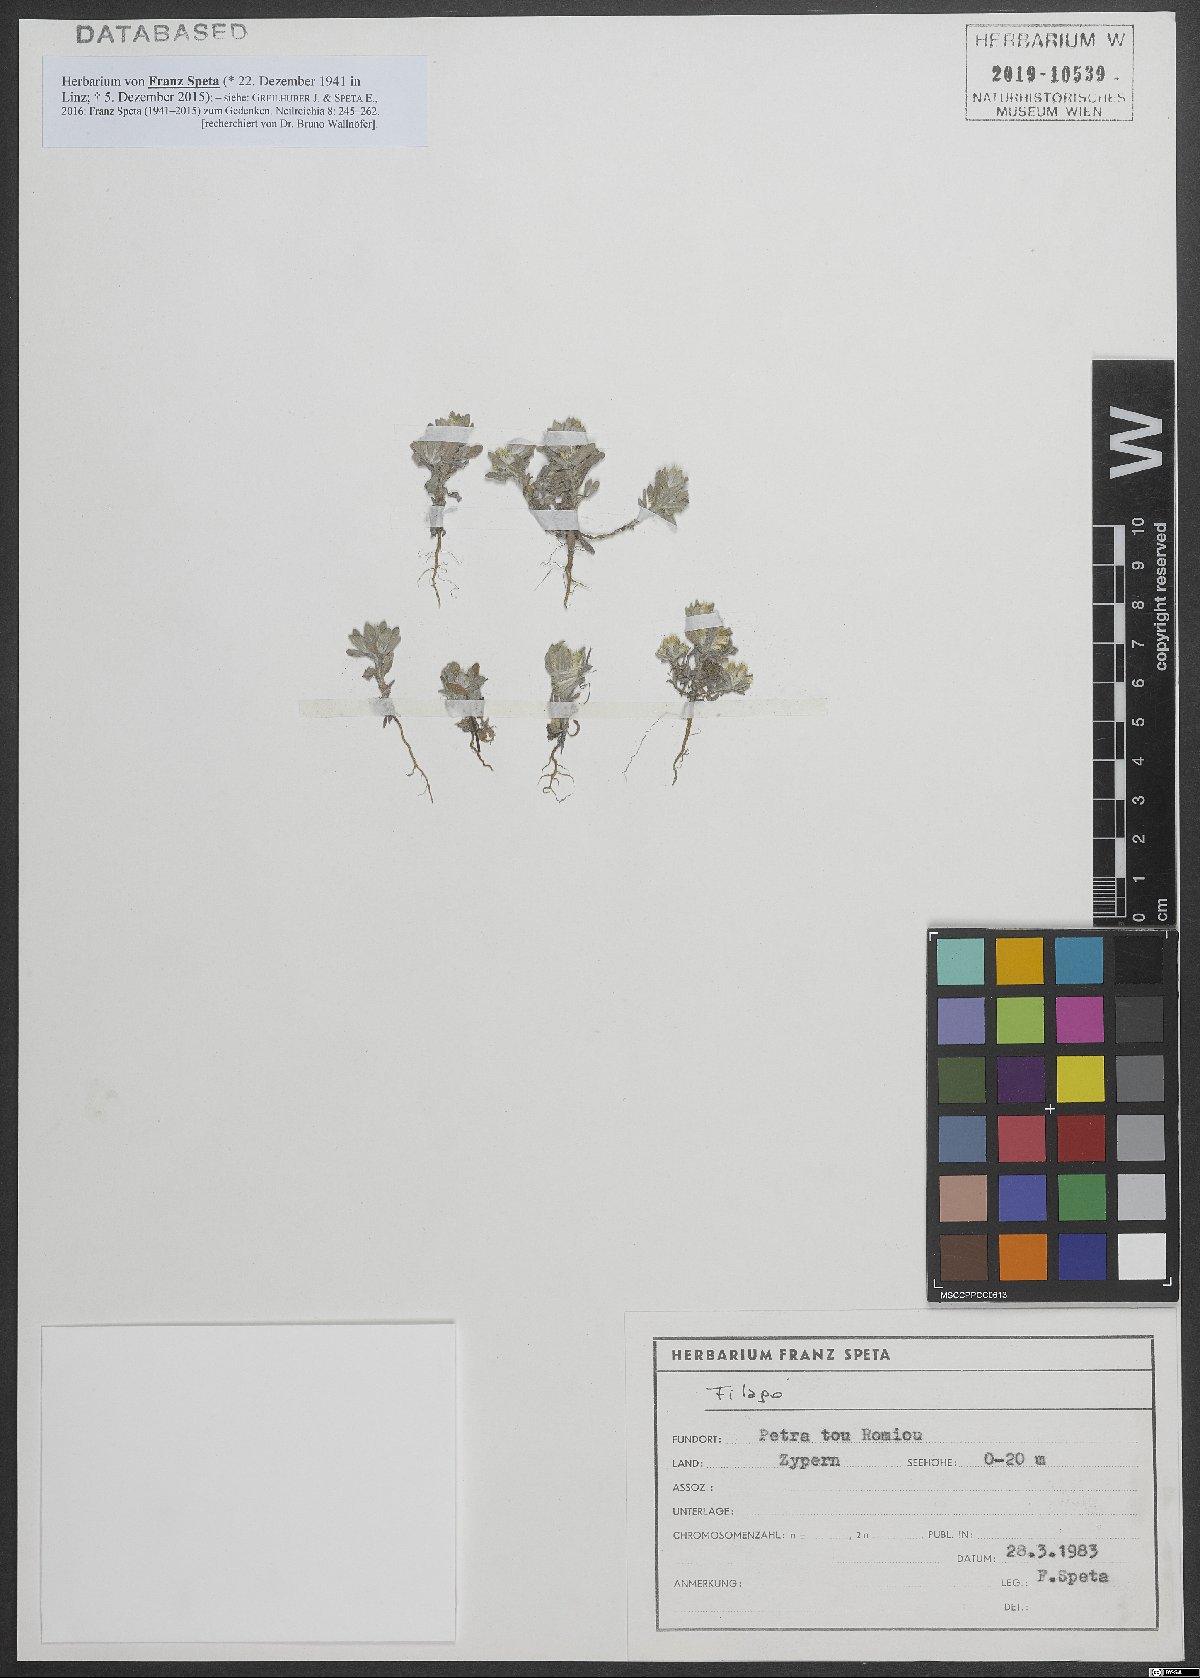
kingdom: Plantae
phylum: Tracheophyta
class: Magnoliopsida
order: Asterales
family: Asteraceae
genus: Filago
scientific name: Filago
